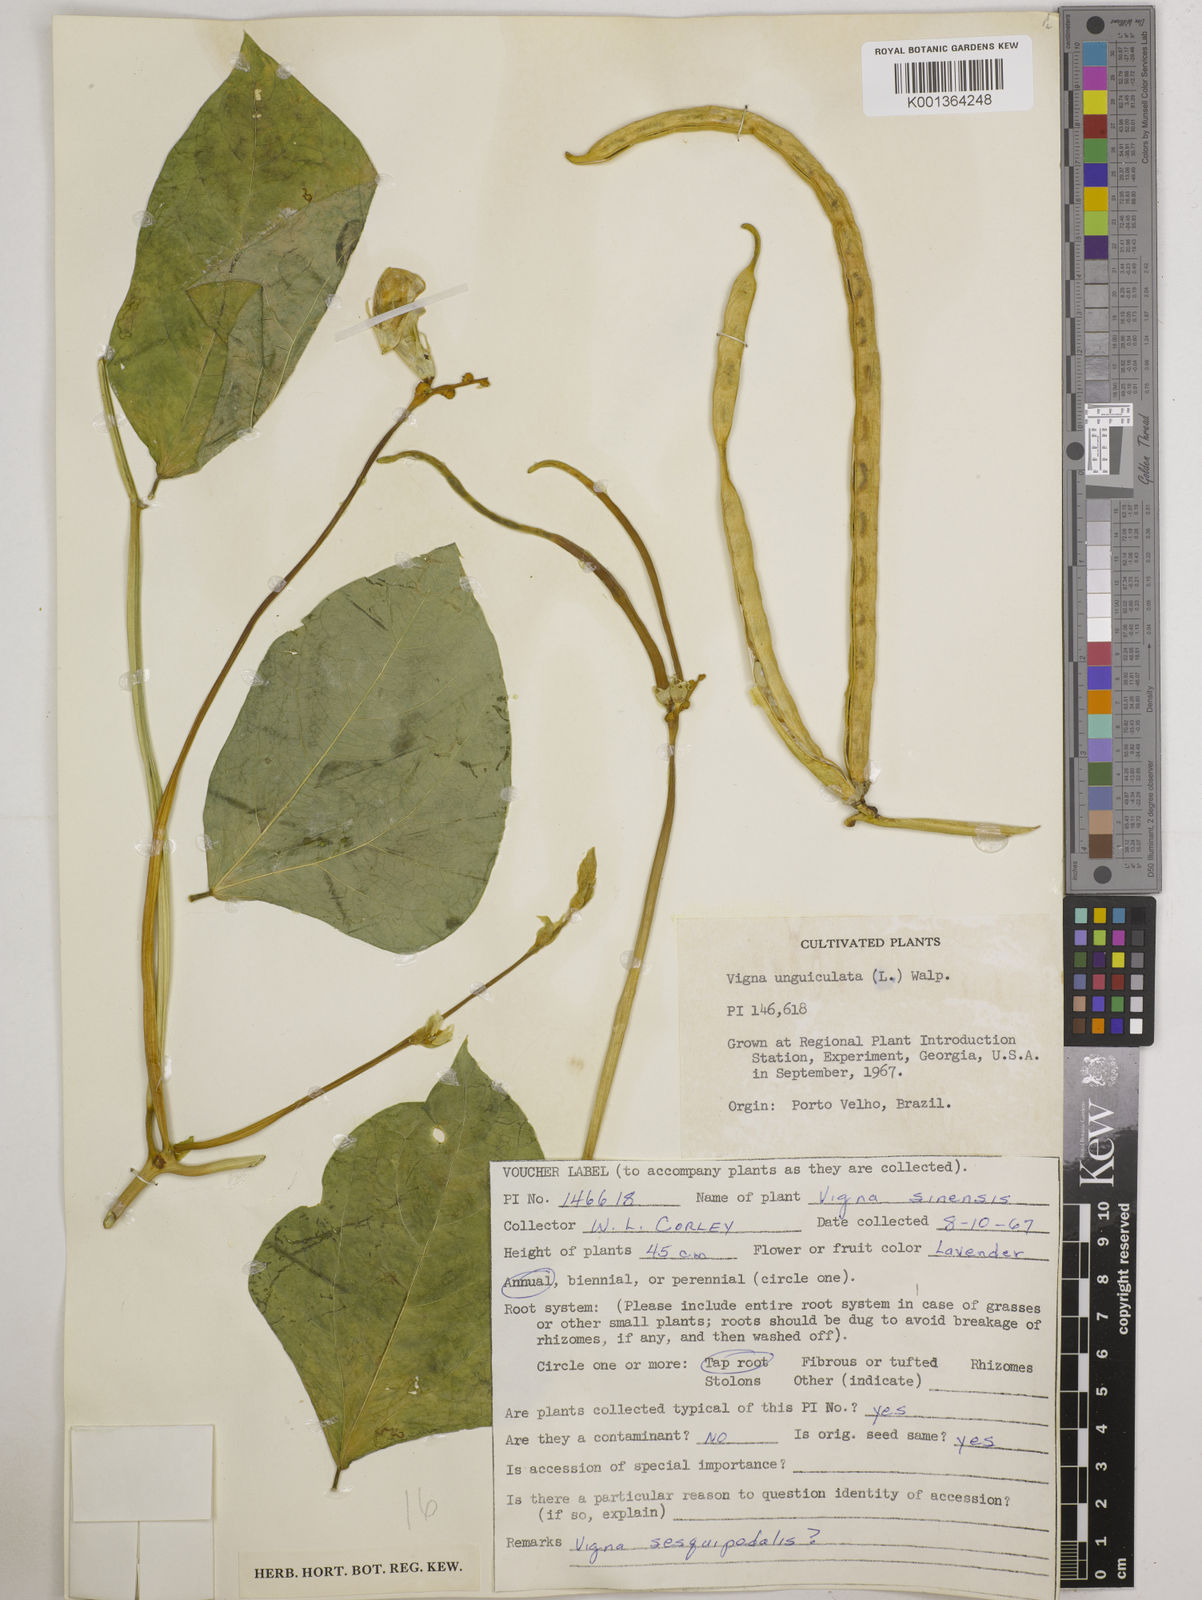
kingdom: Plantae
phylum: Tracheophyta
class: Magnoliopsida
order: Fabales
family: Fabaceae
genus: Vigna
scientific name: Vigna unguiculata
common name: Cowpea
